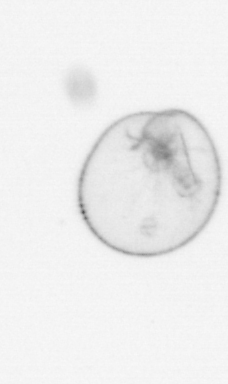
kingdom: Chromista
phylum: Myzozoa
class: Dinophyceae
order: Noctilucales
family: Noctilucaceae
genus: Noctiluca
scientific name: Noctiluca scintillans
